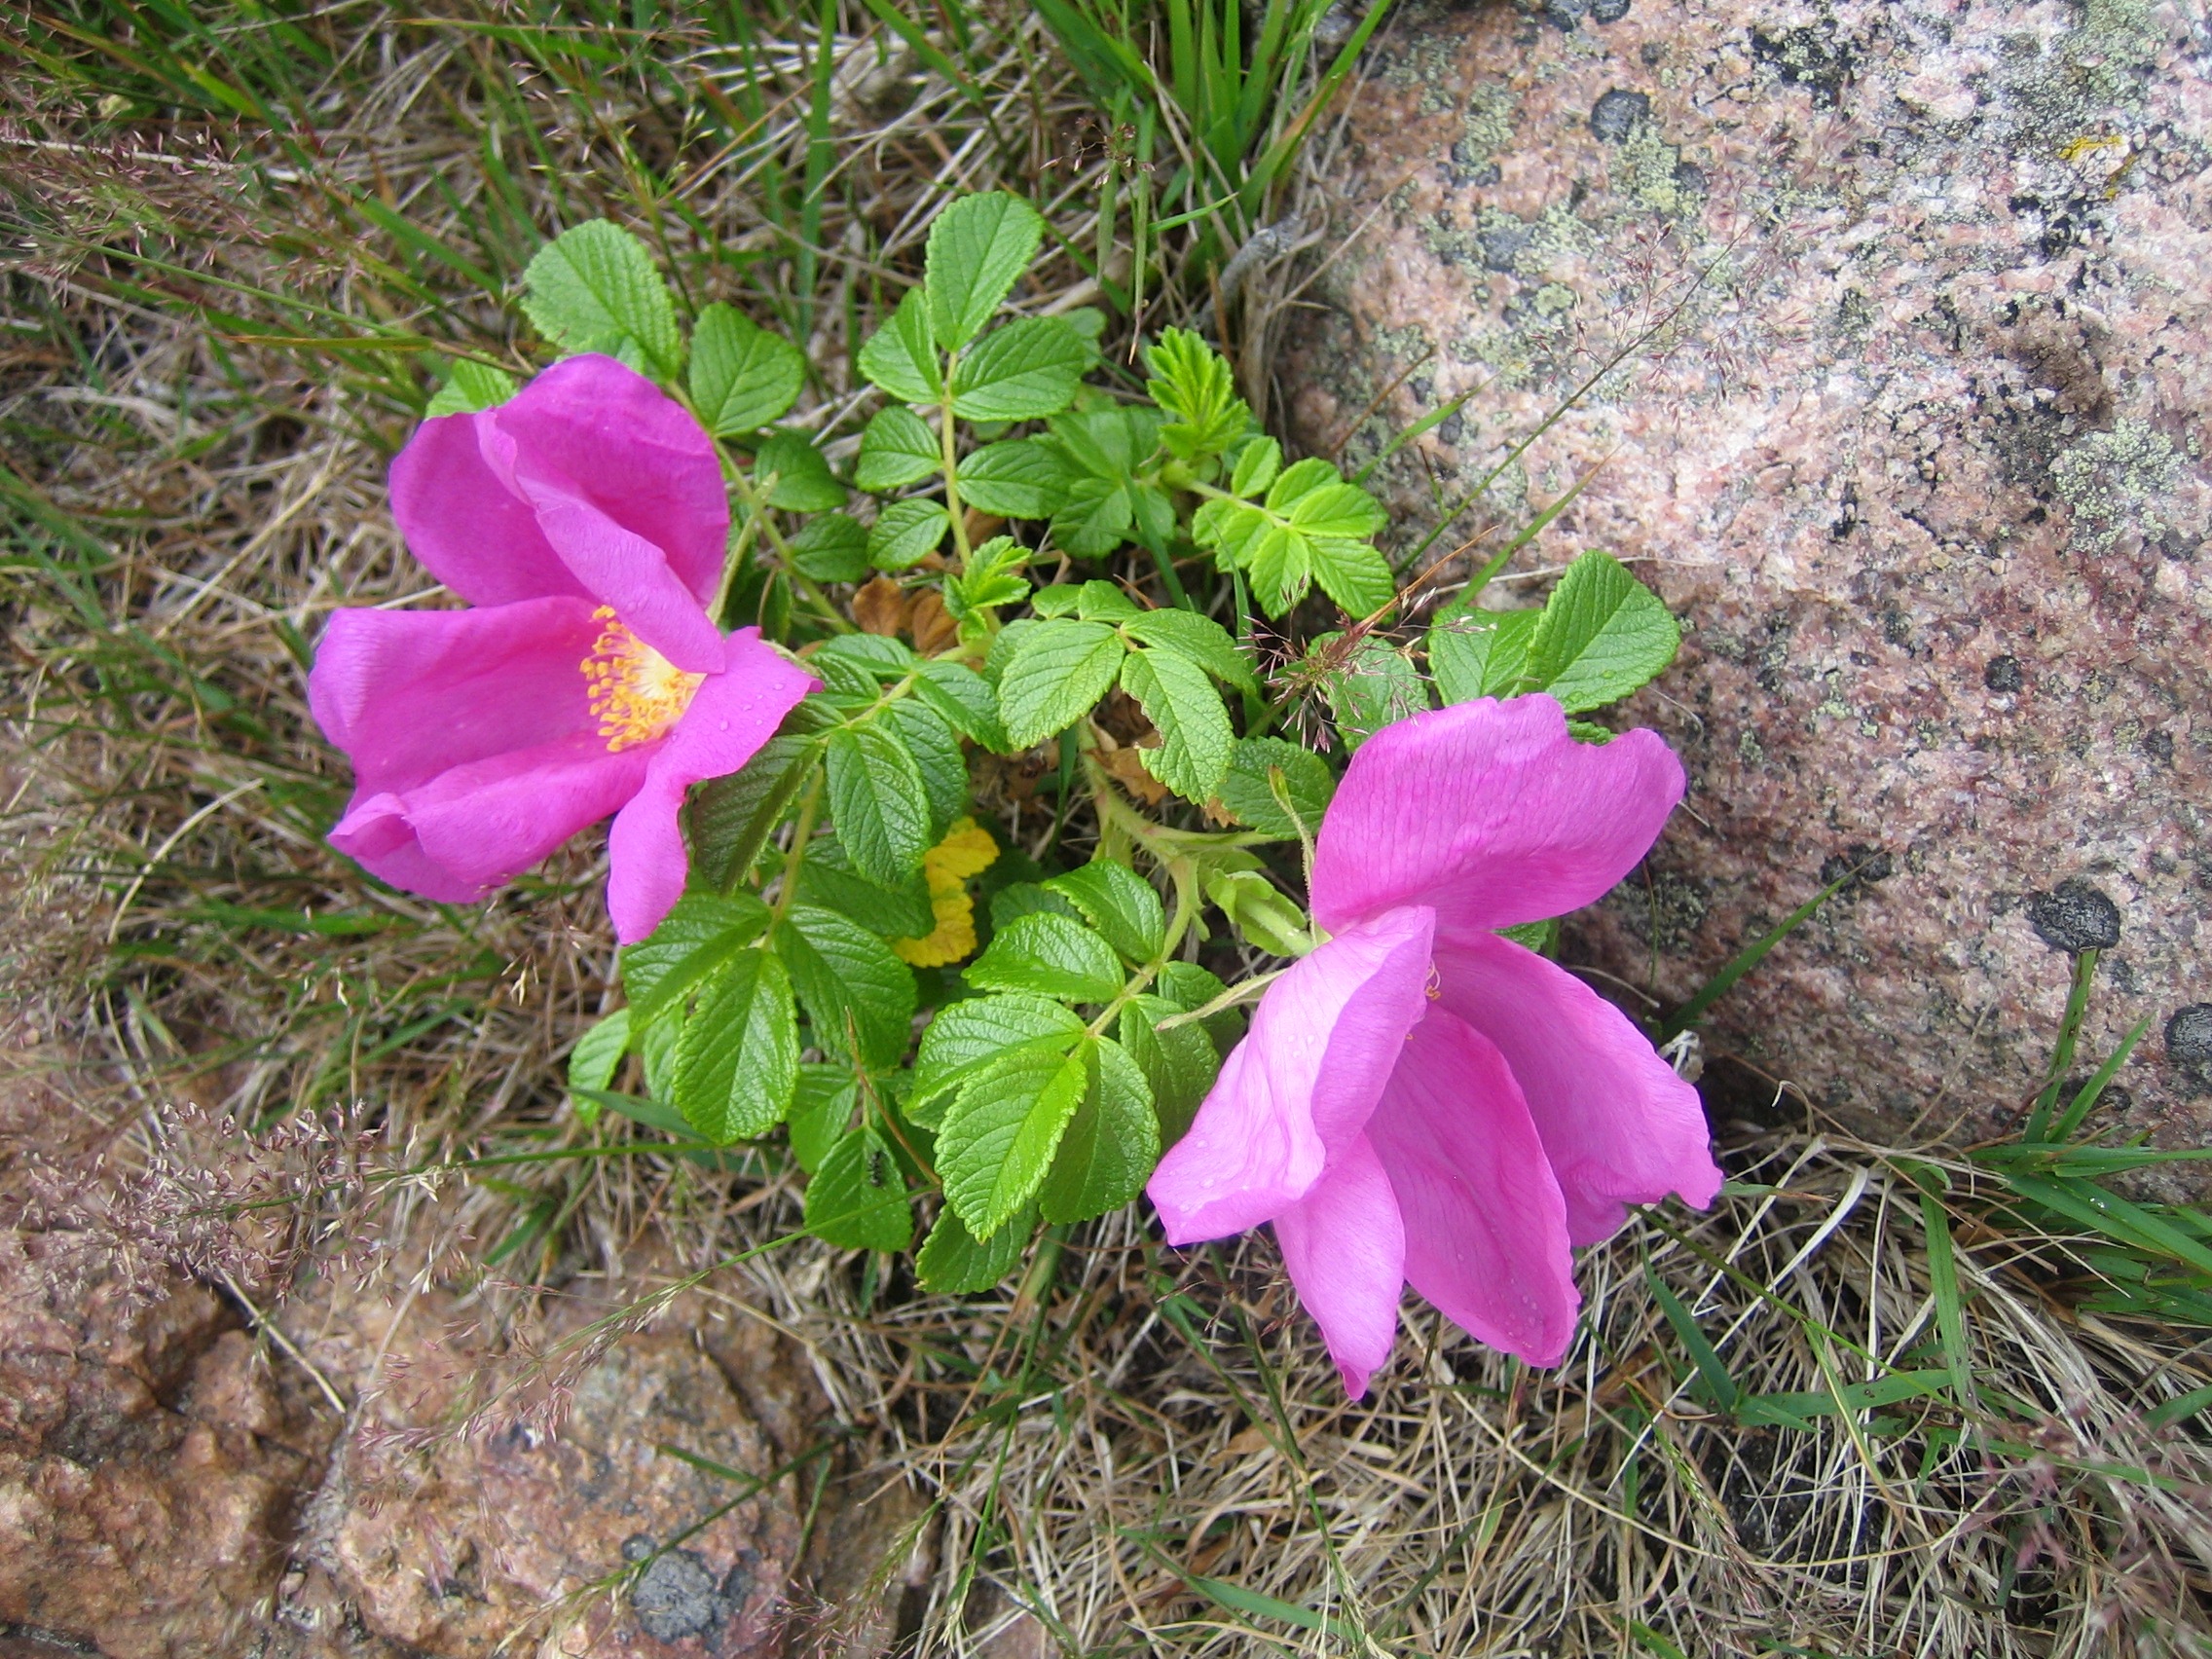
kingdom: Plantae
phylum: Tracheophyta
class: Magnoliopsida
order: Rosales
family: Rosaceae
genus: Rosa
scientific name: Rosa rugosa
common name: Rynket rose
